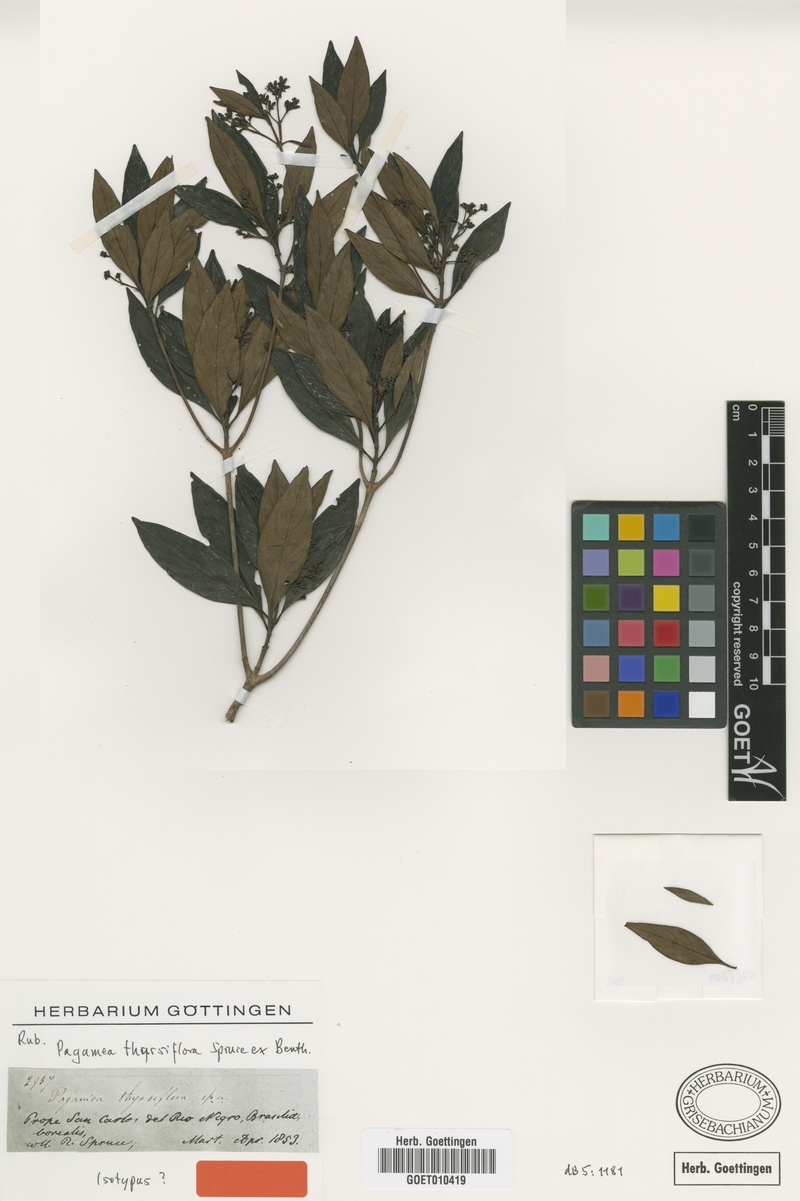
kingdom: Plantae
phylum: Tracheophyta
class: Magnoliopsida
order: Gentianales
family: Rubiaceae
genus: Pagamea
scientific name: Pagamea thyrsiflora
